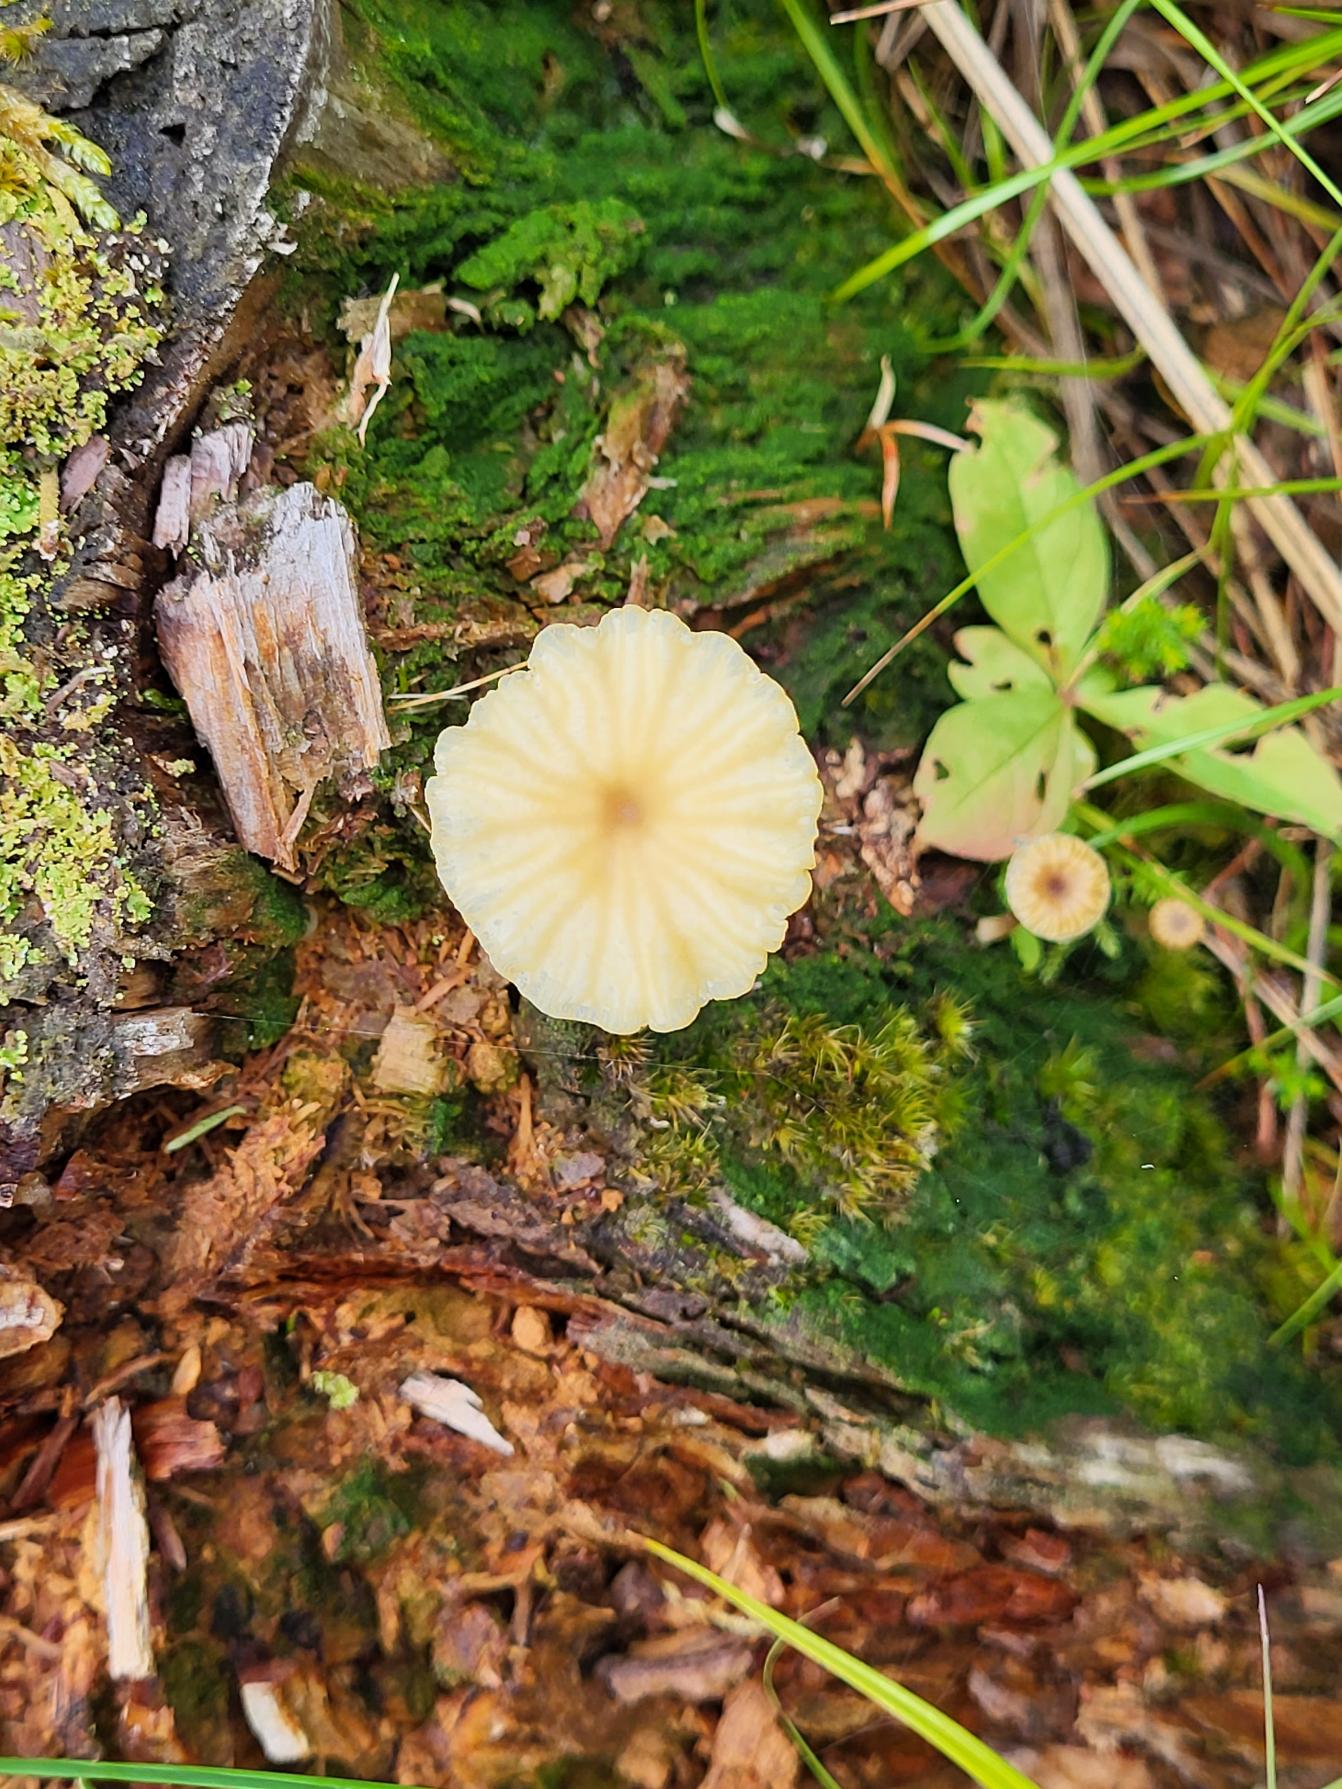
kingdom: Fungi
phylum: Basidiomycota
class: Agaricomycetes
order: Agaricales
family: Hygrophoraceae
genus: Lichenomphalia
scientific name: Lichenomphalia umbellifera
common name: Tørve-lavhat
